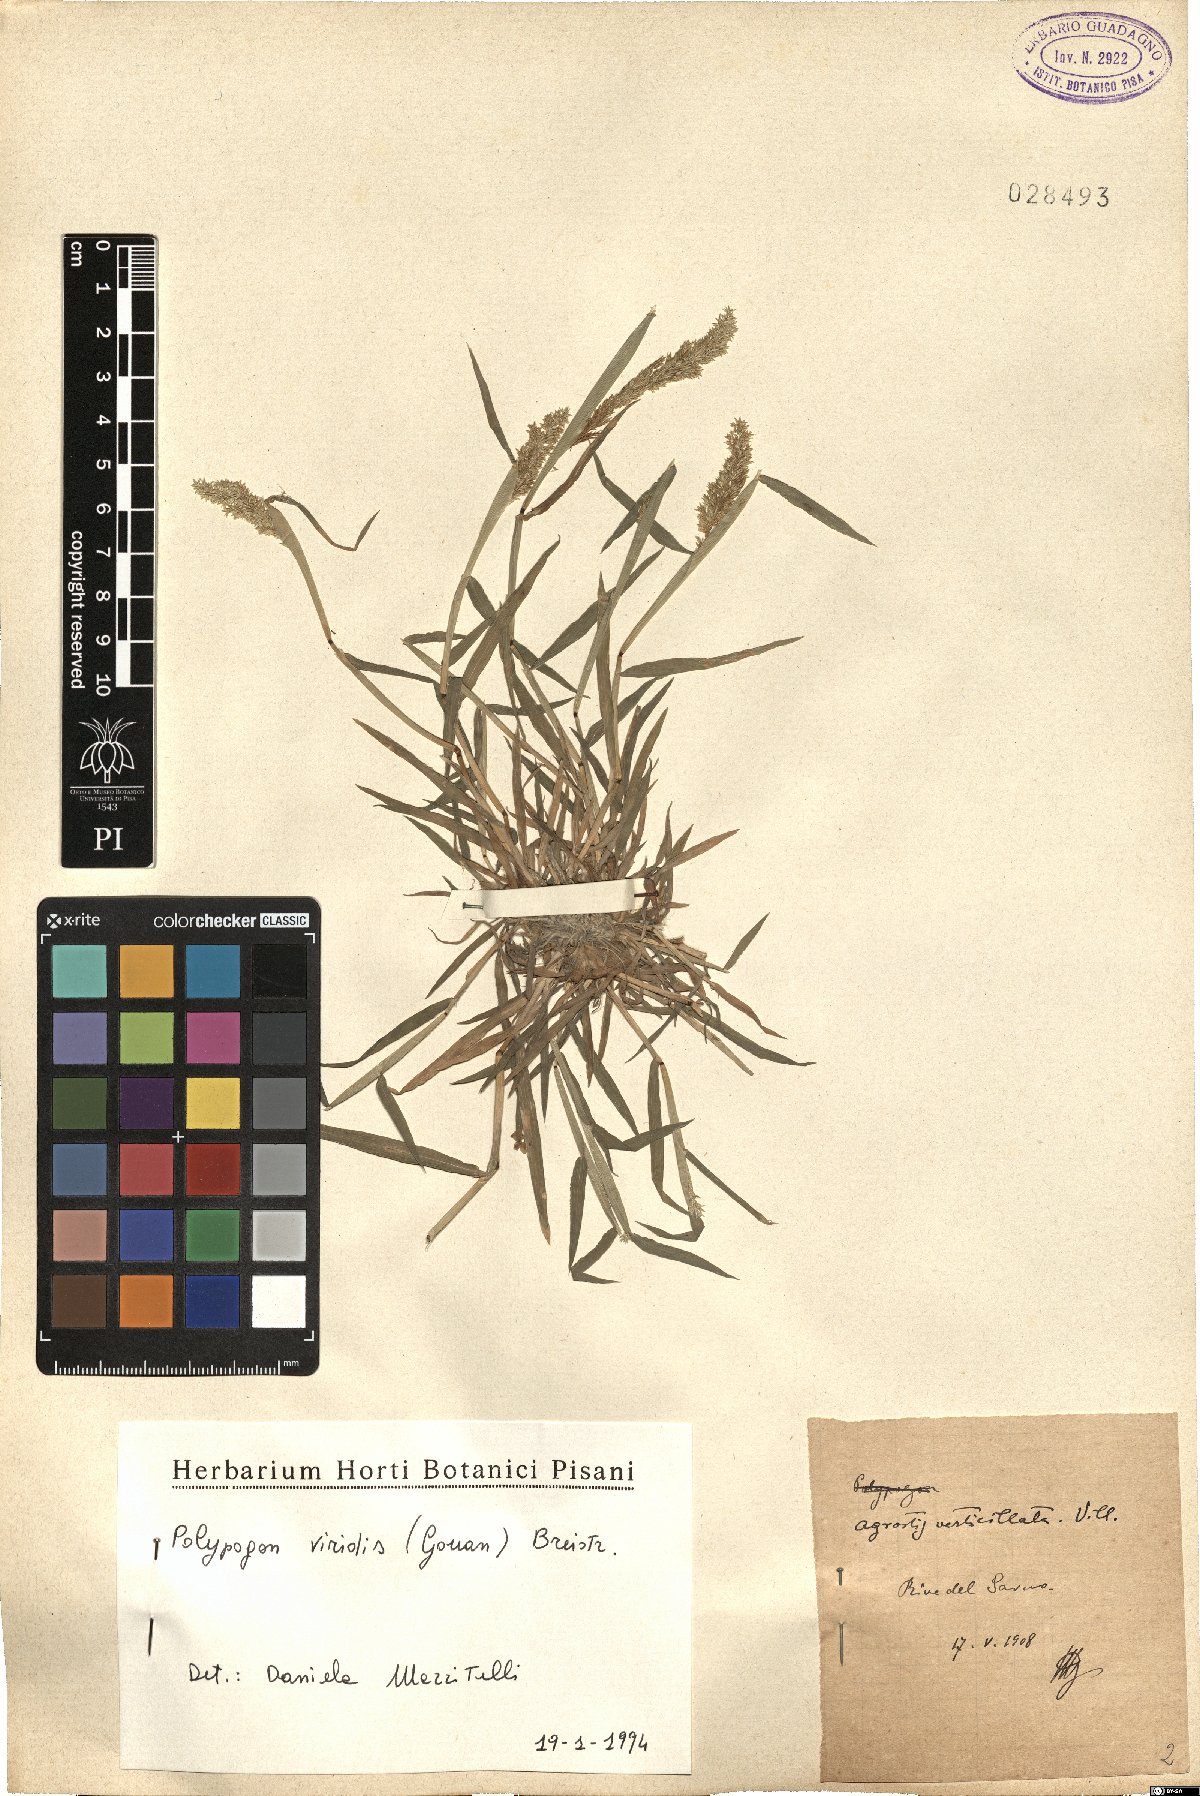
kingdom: Plantae
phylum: Tracheophyta
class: Liliopsida
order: Poales
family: Poaceae
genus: Polypogon
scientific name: Polypogon viridis
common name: Water bent
